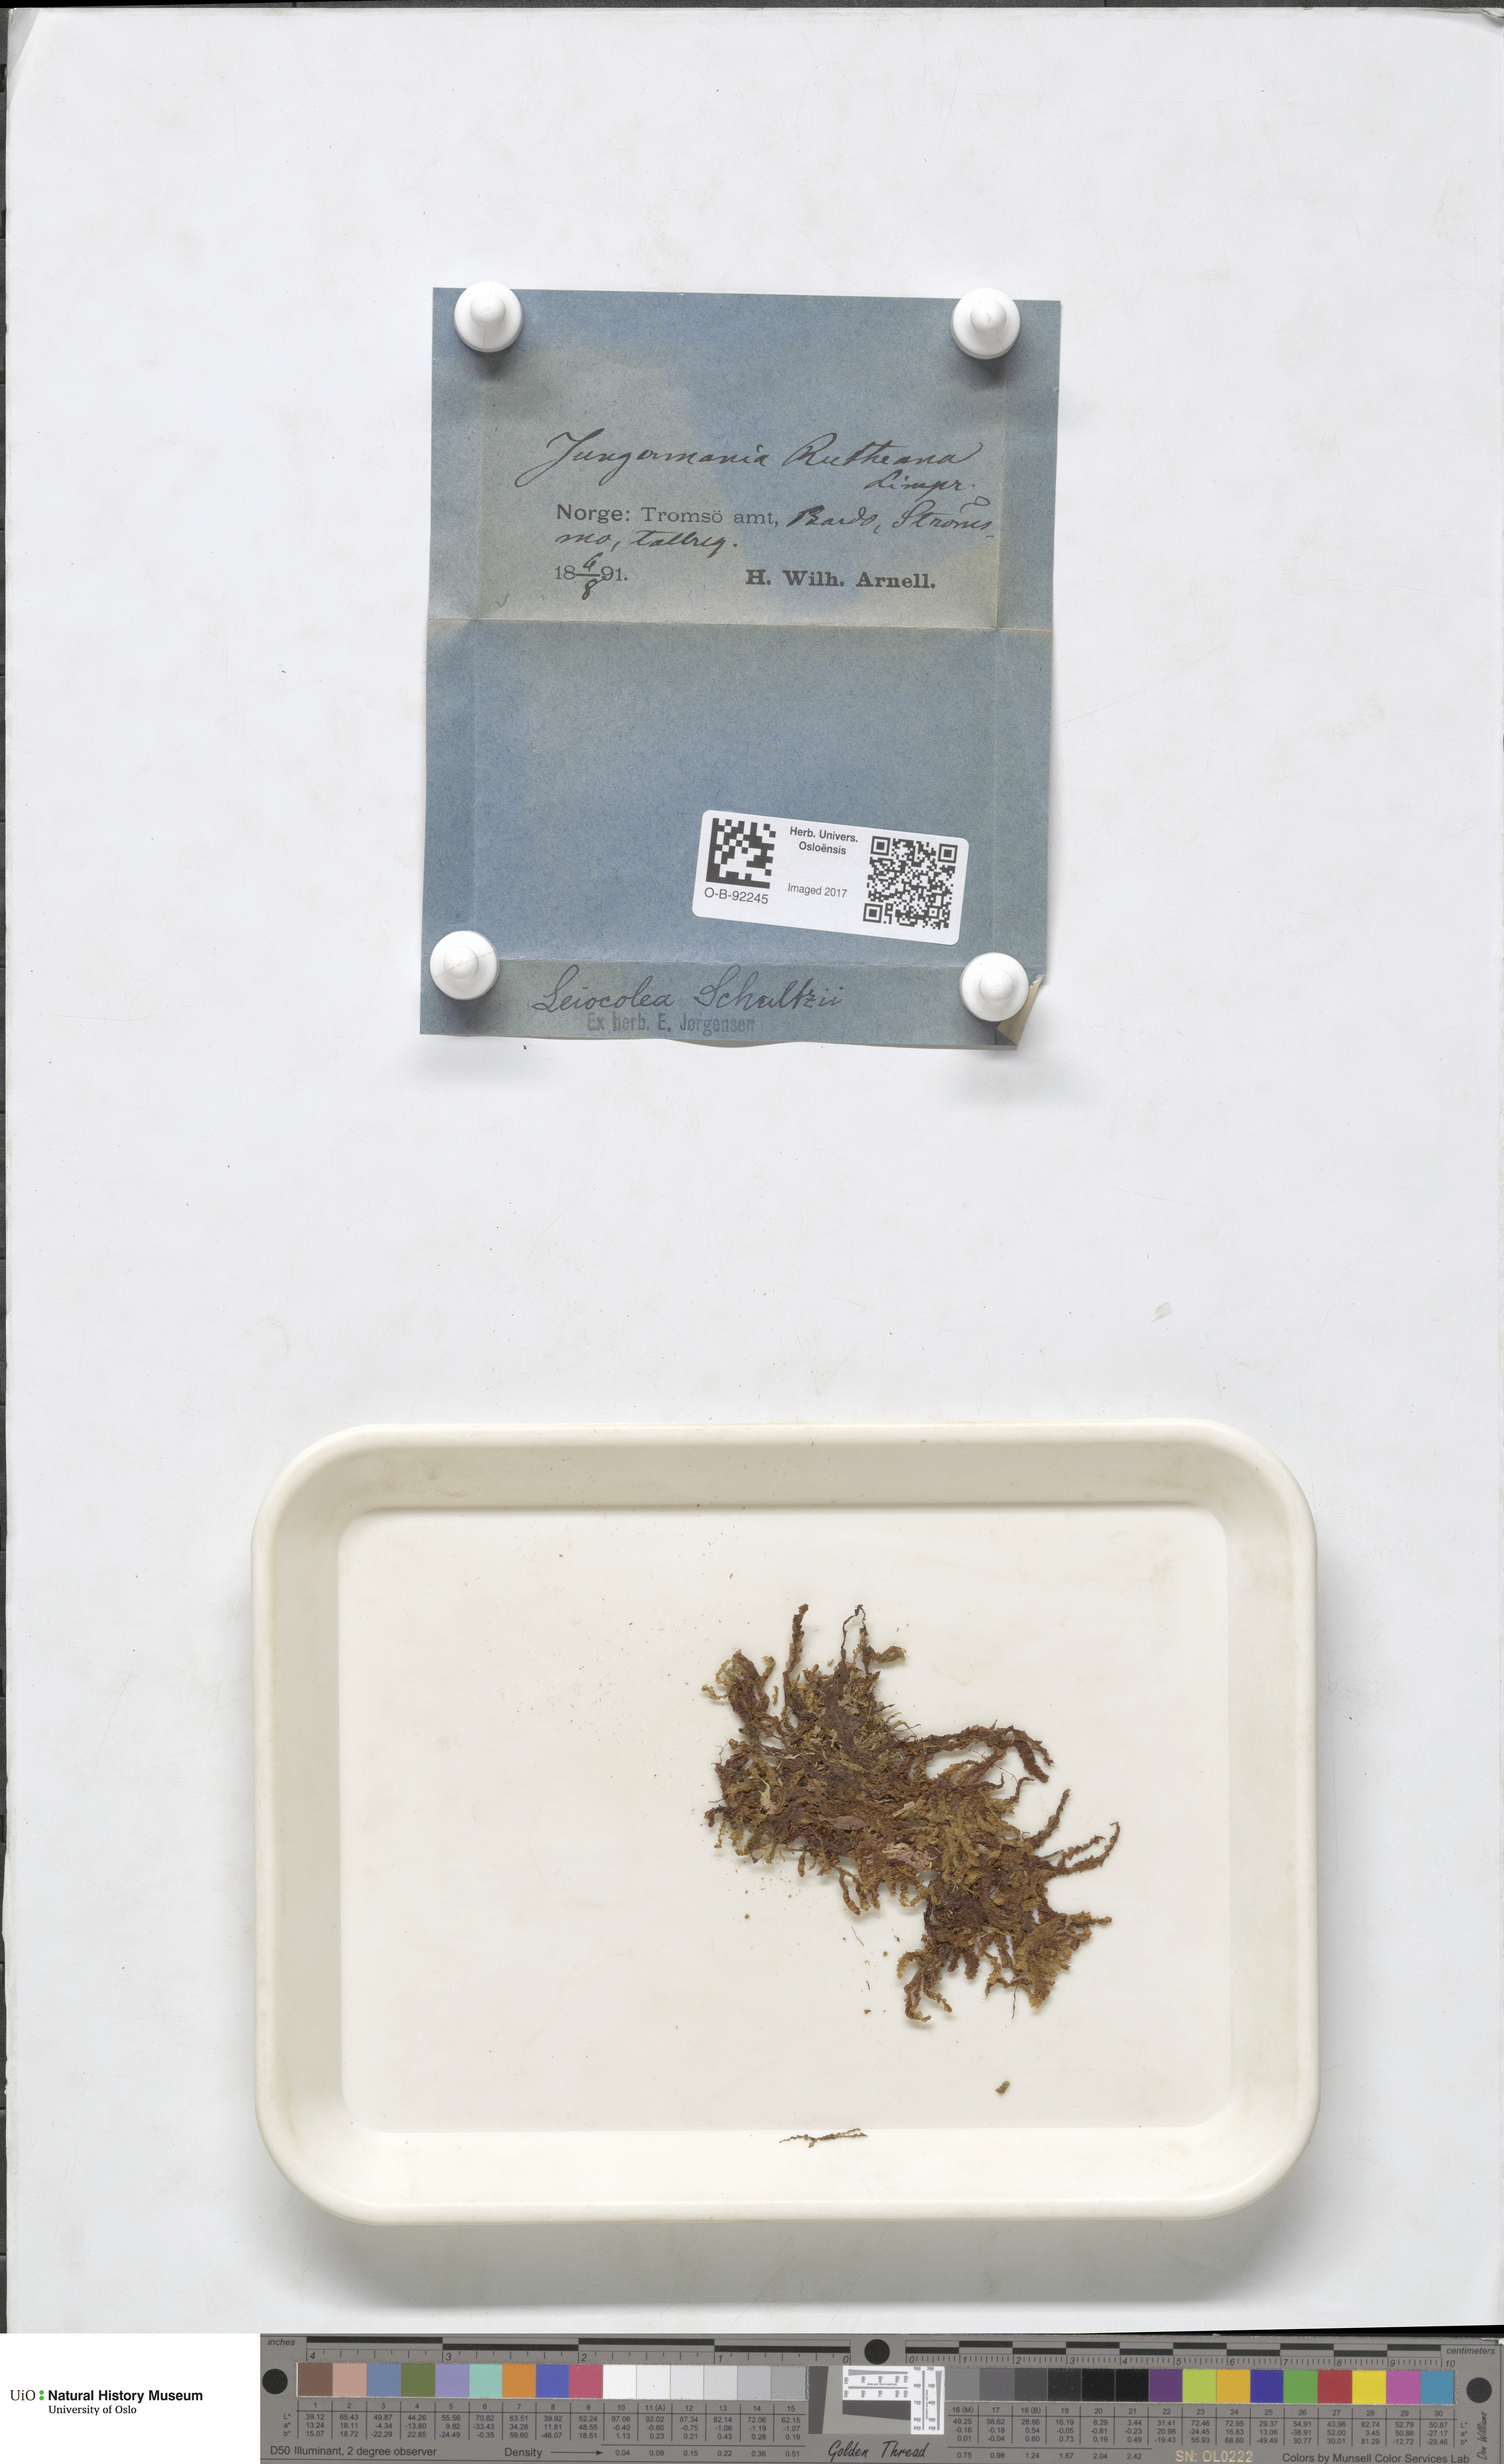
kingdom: Plantae
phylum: Marchantiophyta
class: Jungermanniopsida
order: Jungermanniales
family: Jungermanniaceae
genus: Mesoptychia
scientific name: Mesoptychia rutheana
